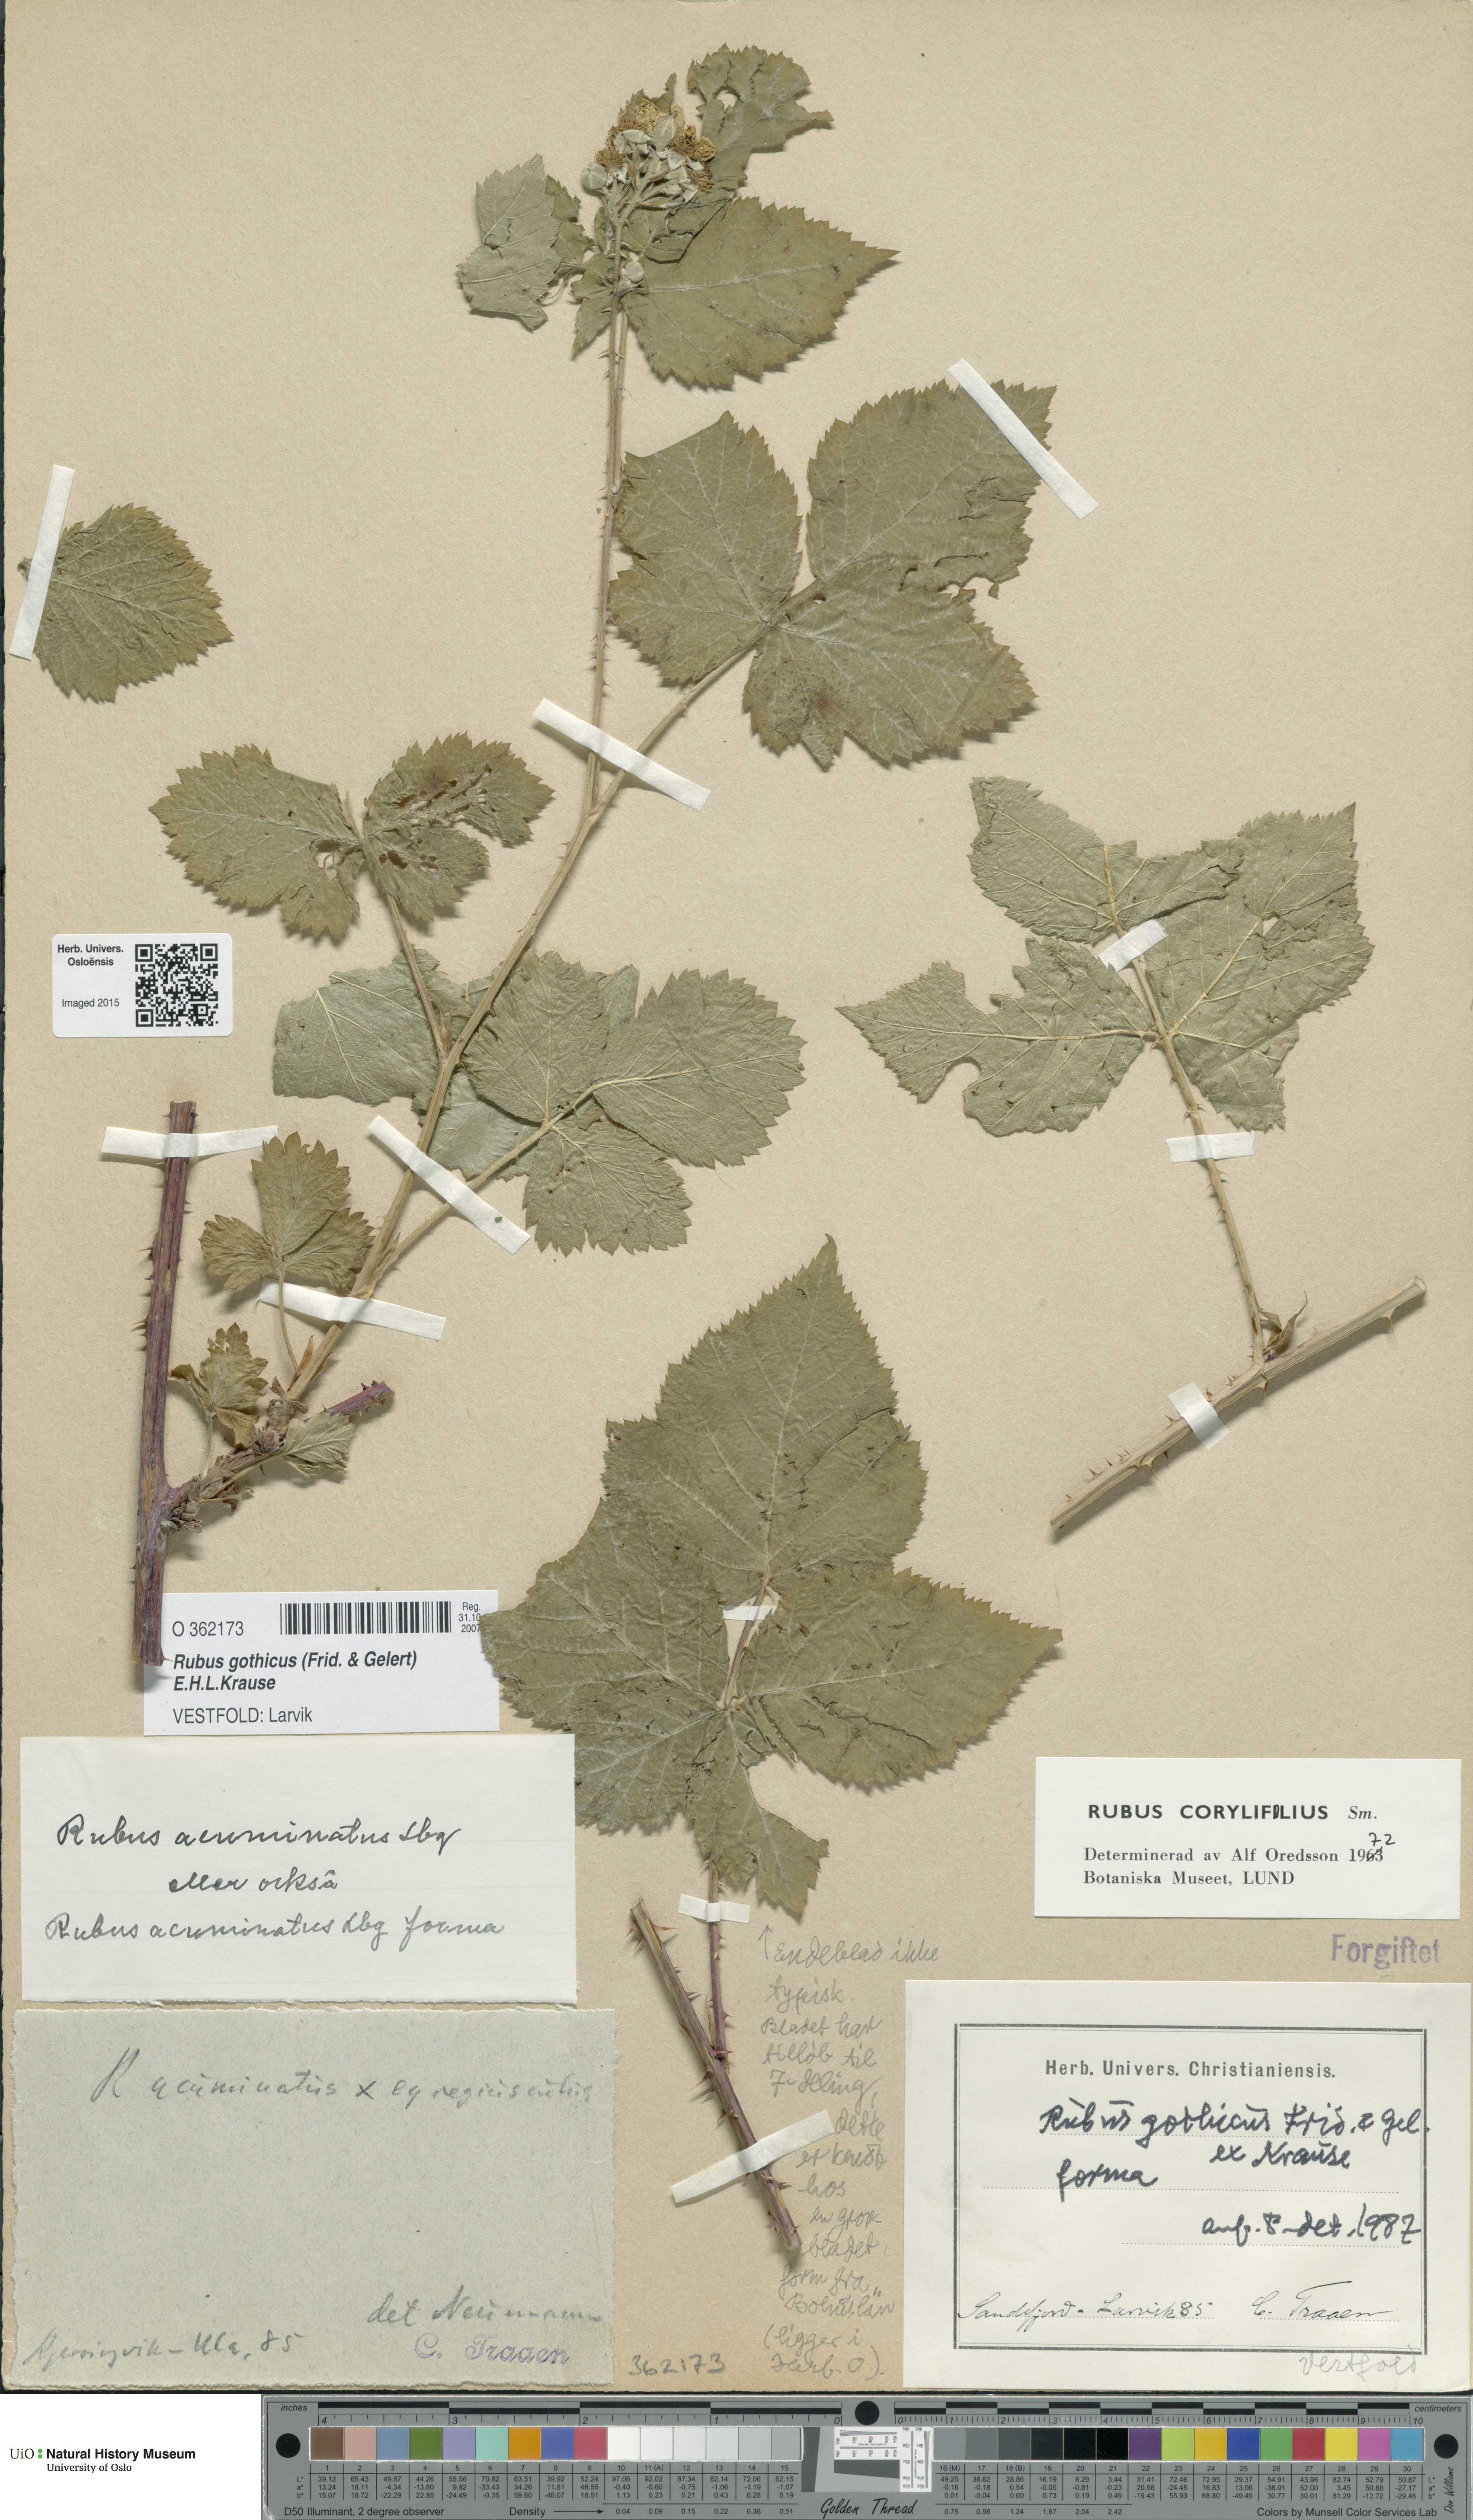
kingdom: Plantae
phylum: Tracheophyta
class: Magnoliopsida
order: Rosales
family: Rosaceae
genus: Rubus
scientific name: Rubus gothicus
